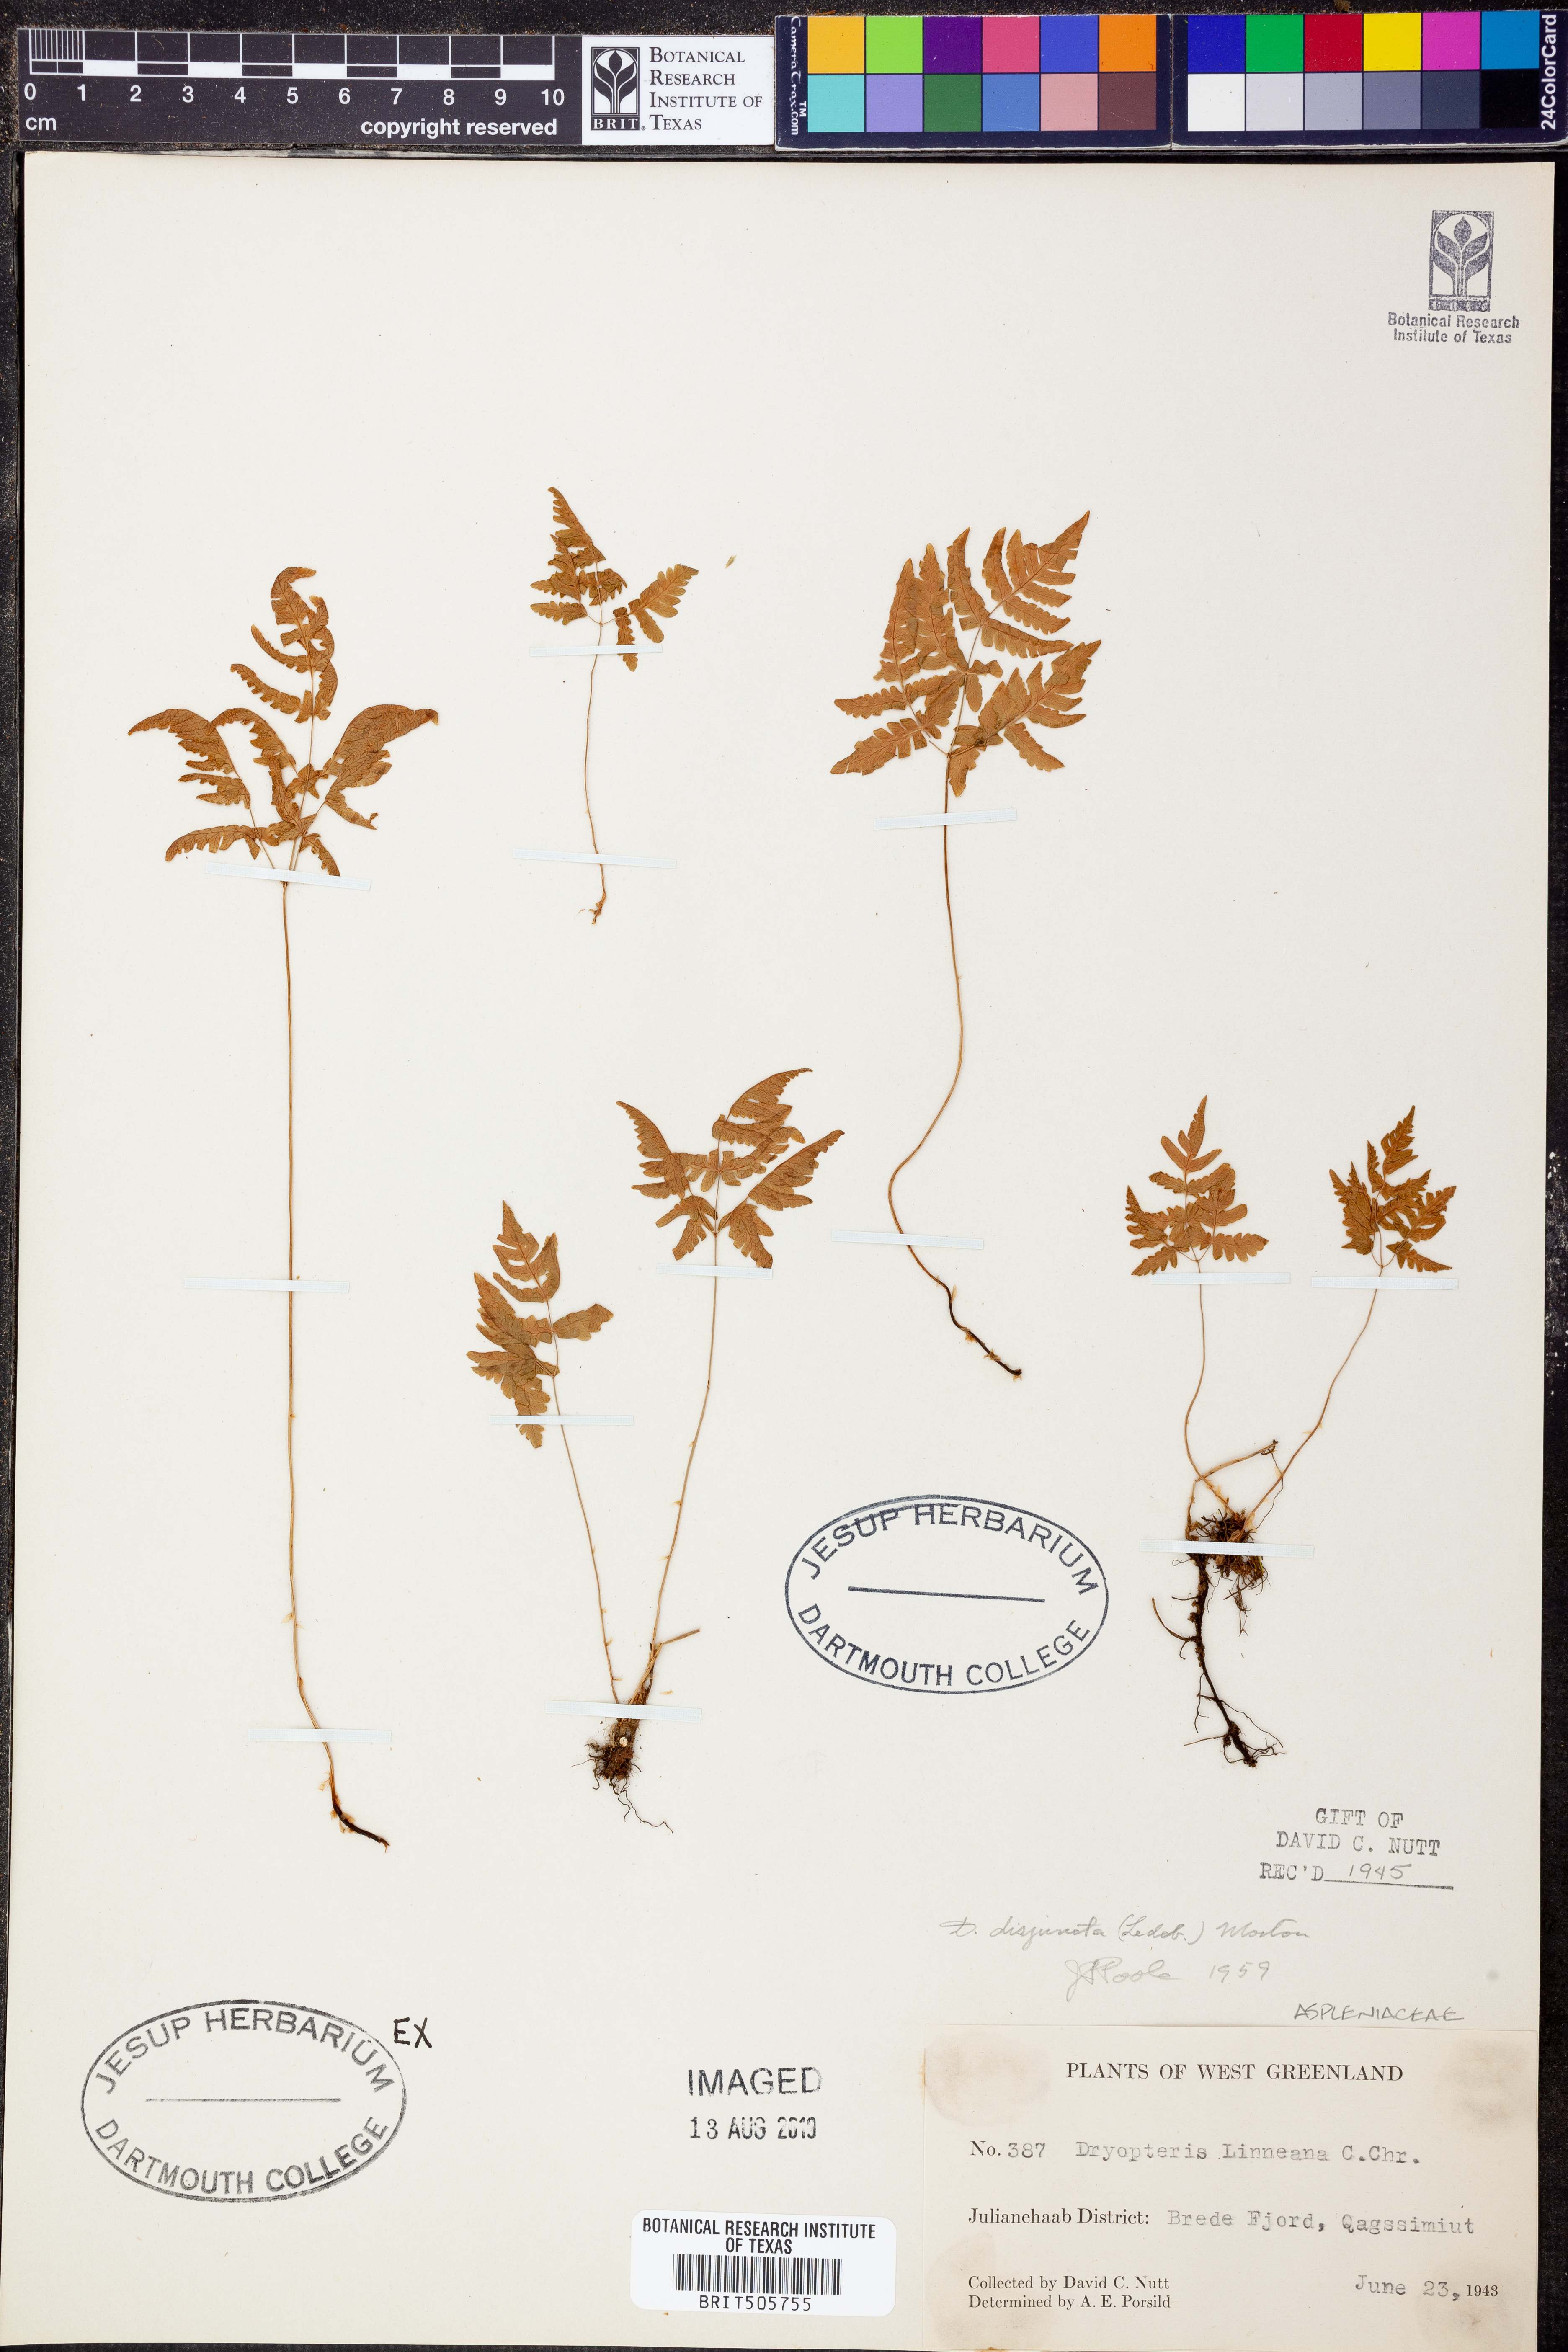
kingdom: Plantae
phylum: Tracheophyta
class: Polypodiopsida
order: Polypodiales
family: Cystopteridaceae
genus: Gymnocarpium
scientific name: Gymnocarpium disjunctum
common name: Western oak fern
